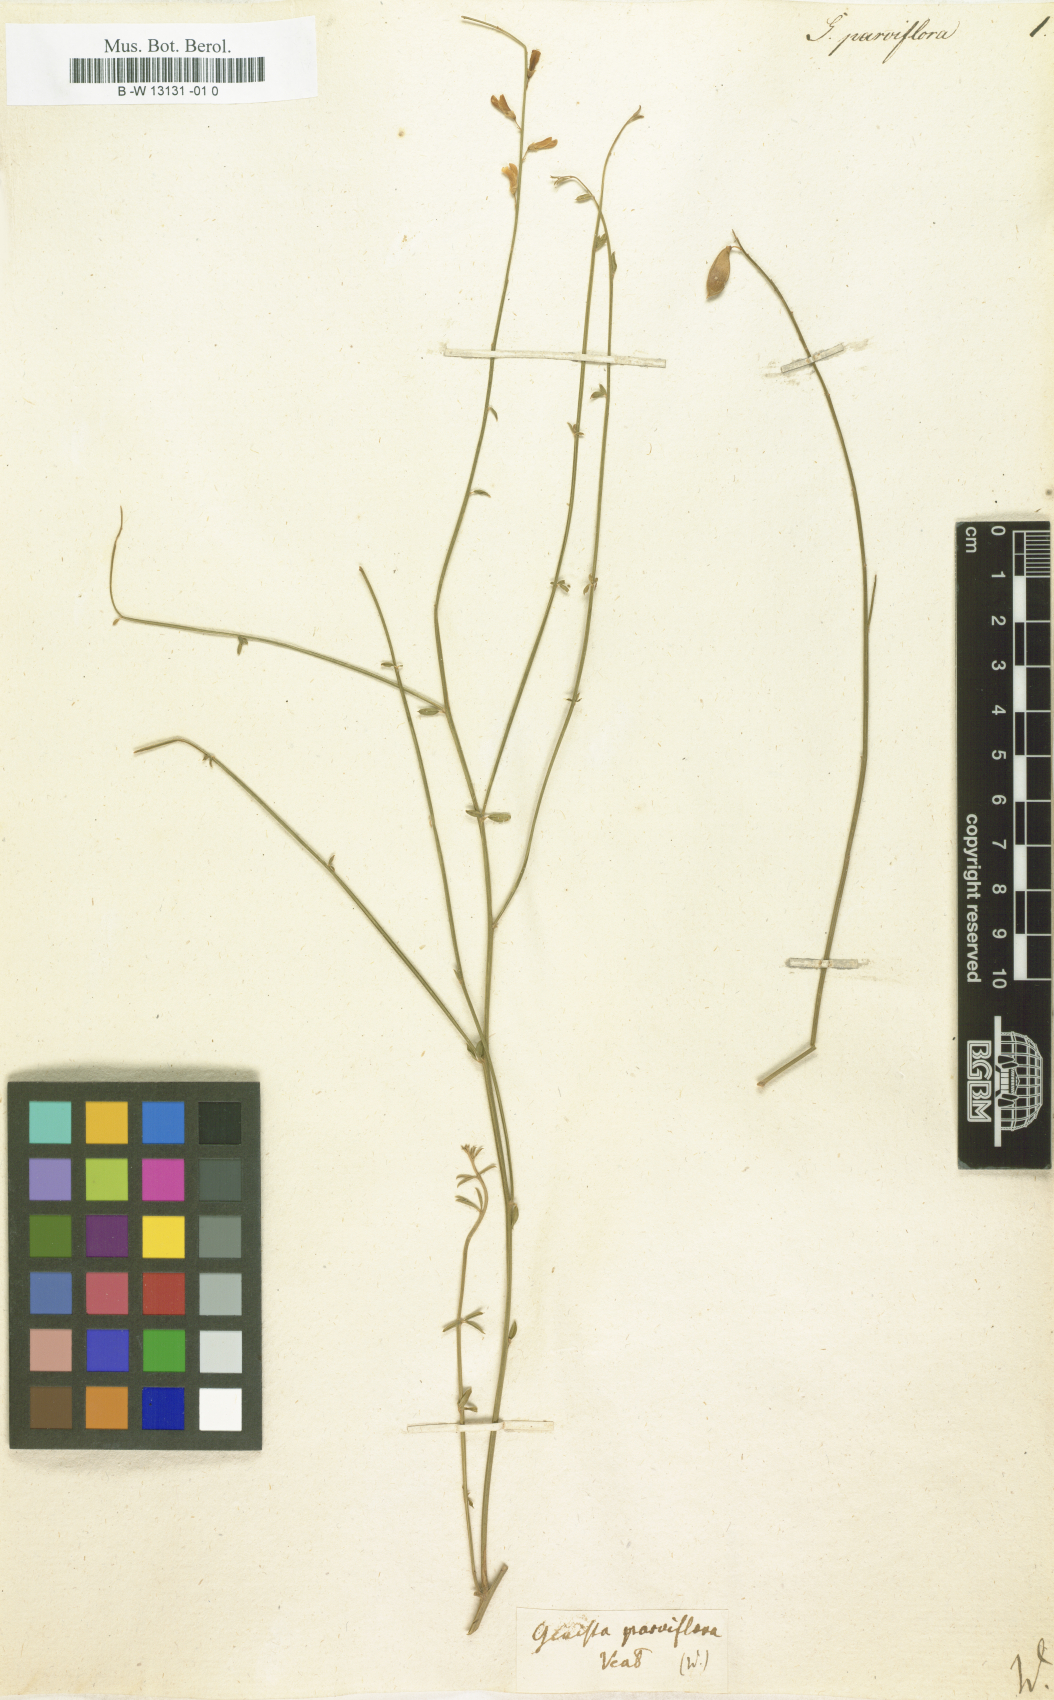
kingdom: Plantae
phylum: Tracheophyta
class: Magnoliopsida
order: Fabales
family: Fabaceae
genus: Gonocytisus
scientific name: Gonocytisus angulatus
